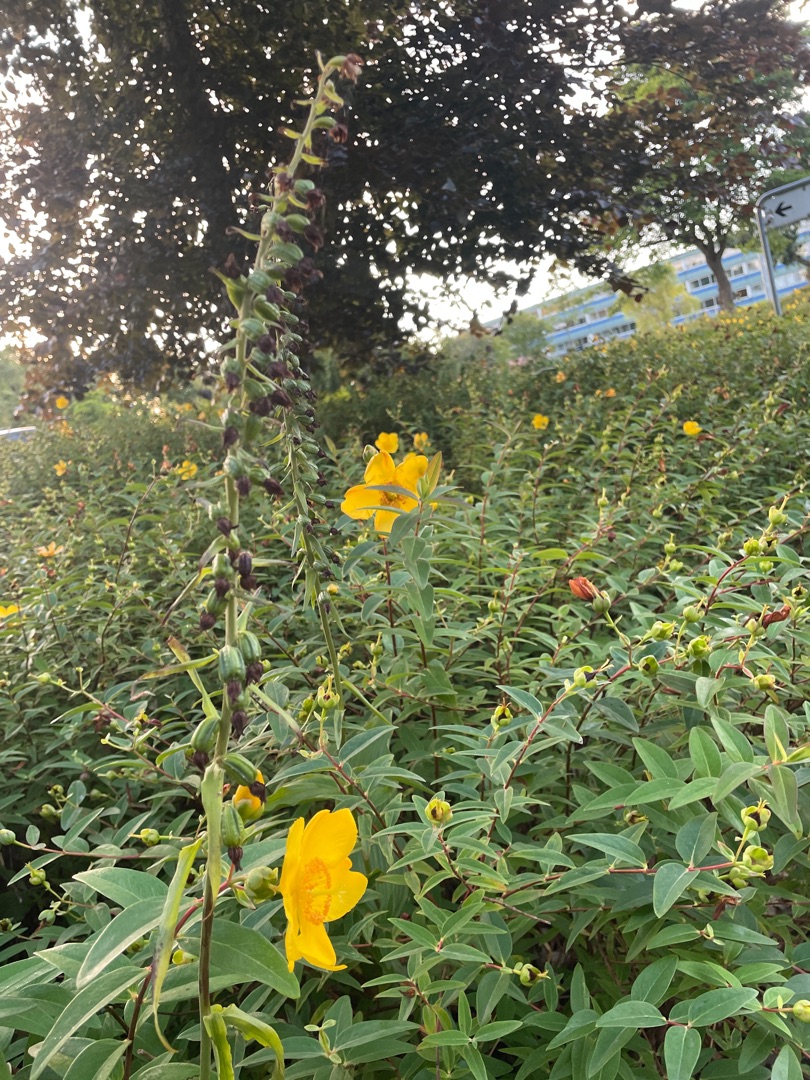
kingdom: Plantae
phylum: Tracheophyta
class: Liliopsida
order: Asparagales
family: Orchidaceae
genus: Epipactis
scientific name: Epipactis helleborine
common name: Skov-hullæbe
